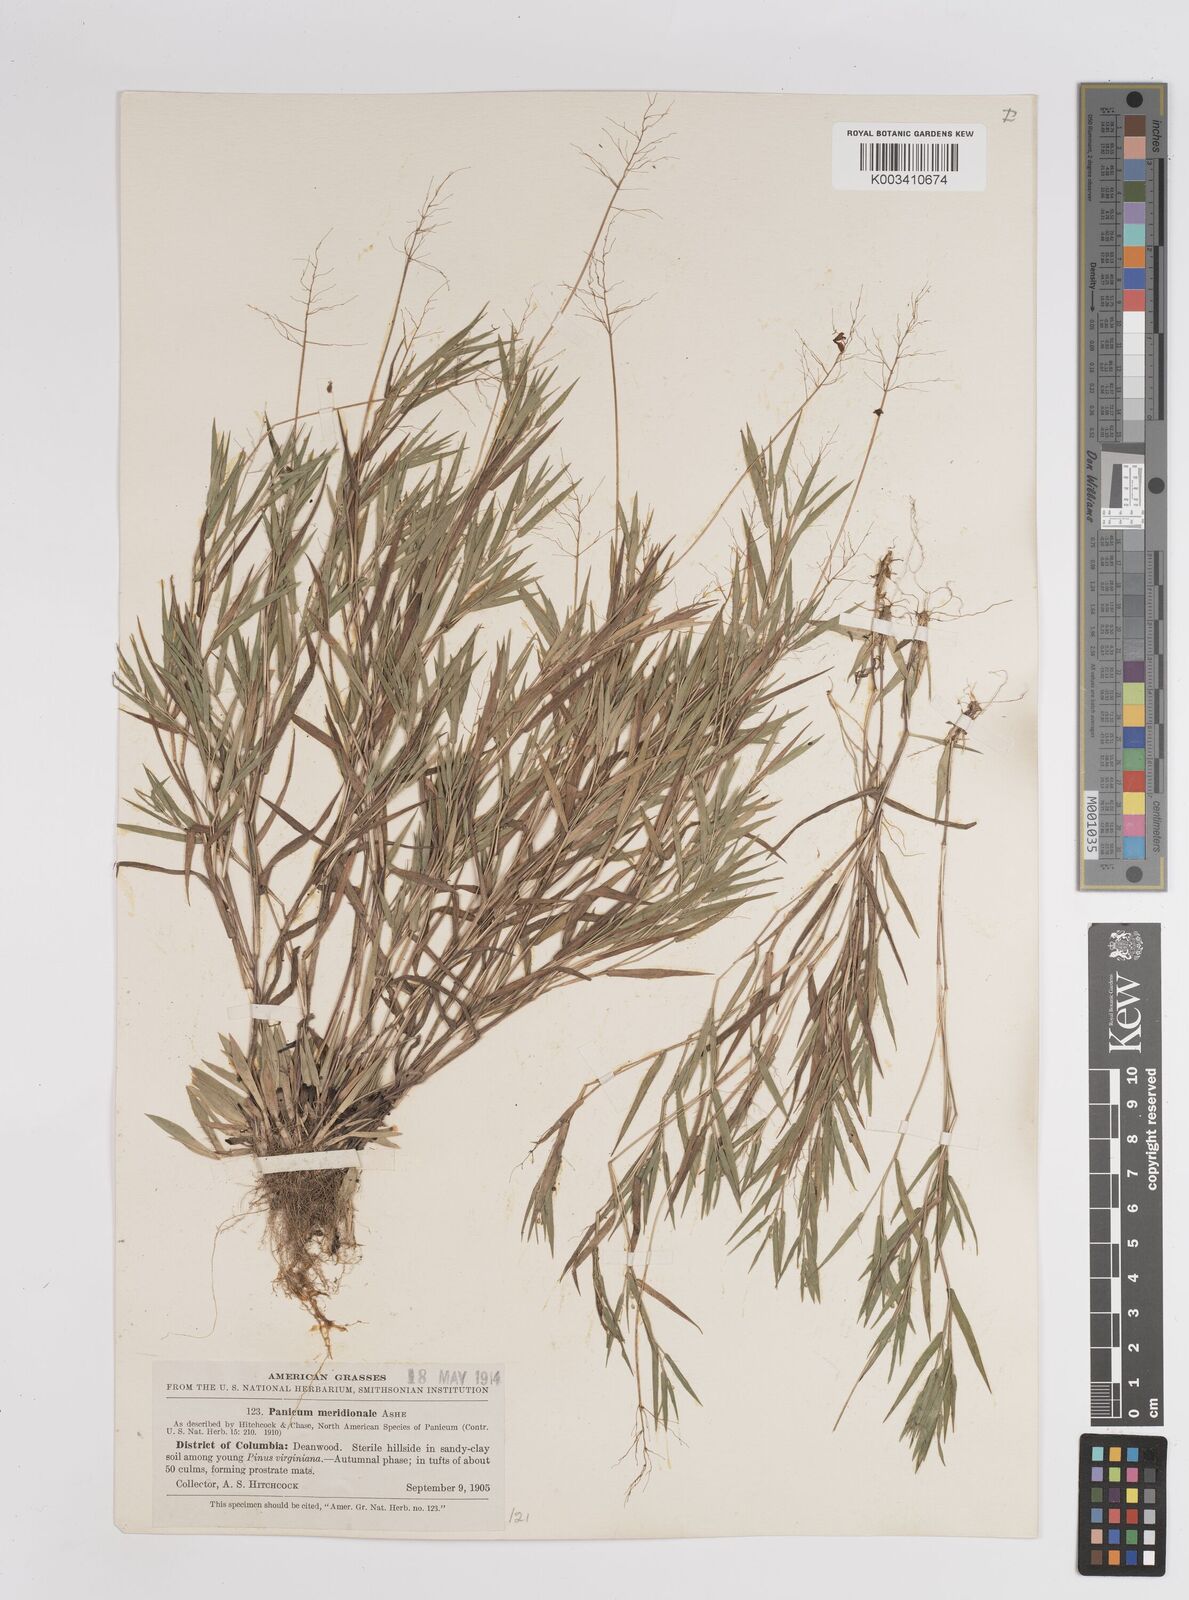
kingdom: Plantae
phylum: Tracheophyta
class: Liliopsida
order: Poales
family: Poaceae
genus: Dichanthelium
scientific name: Dichanthelium meridionale
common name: Mat panicgrass
